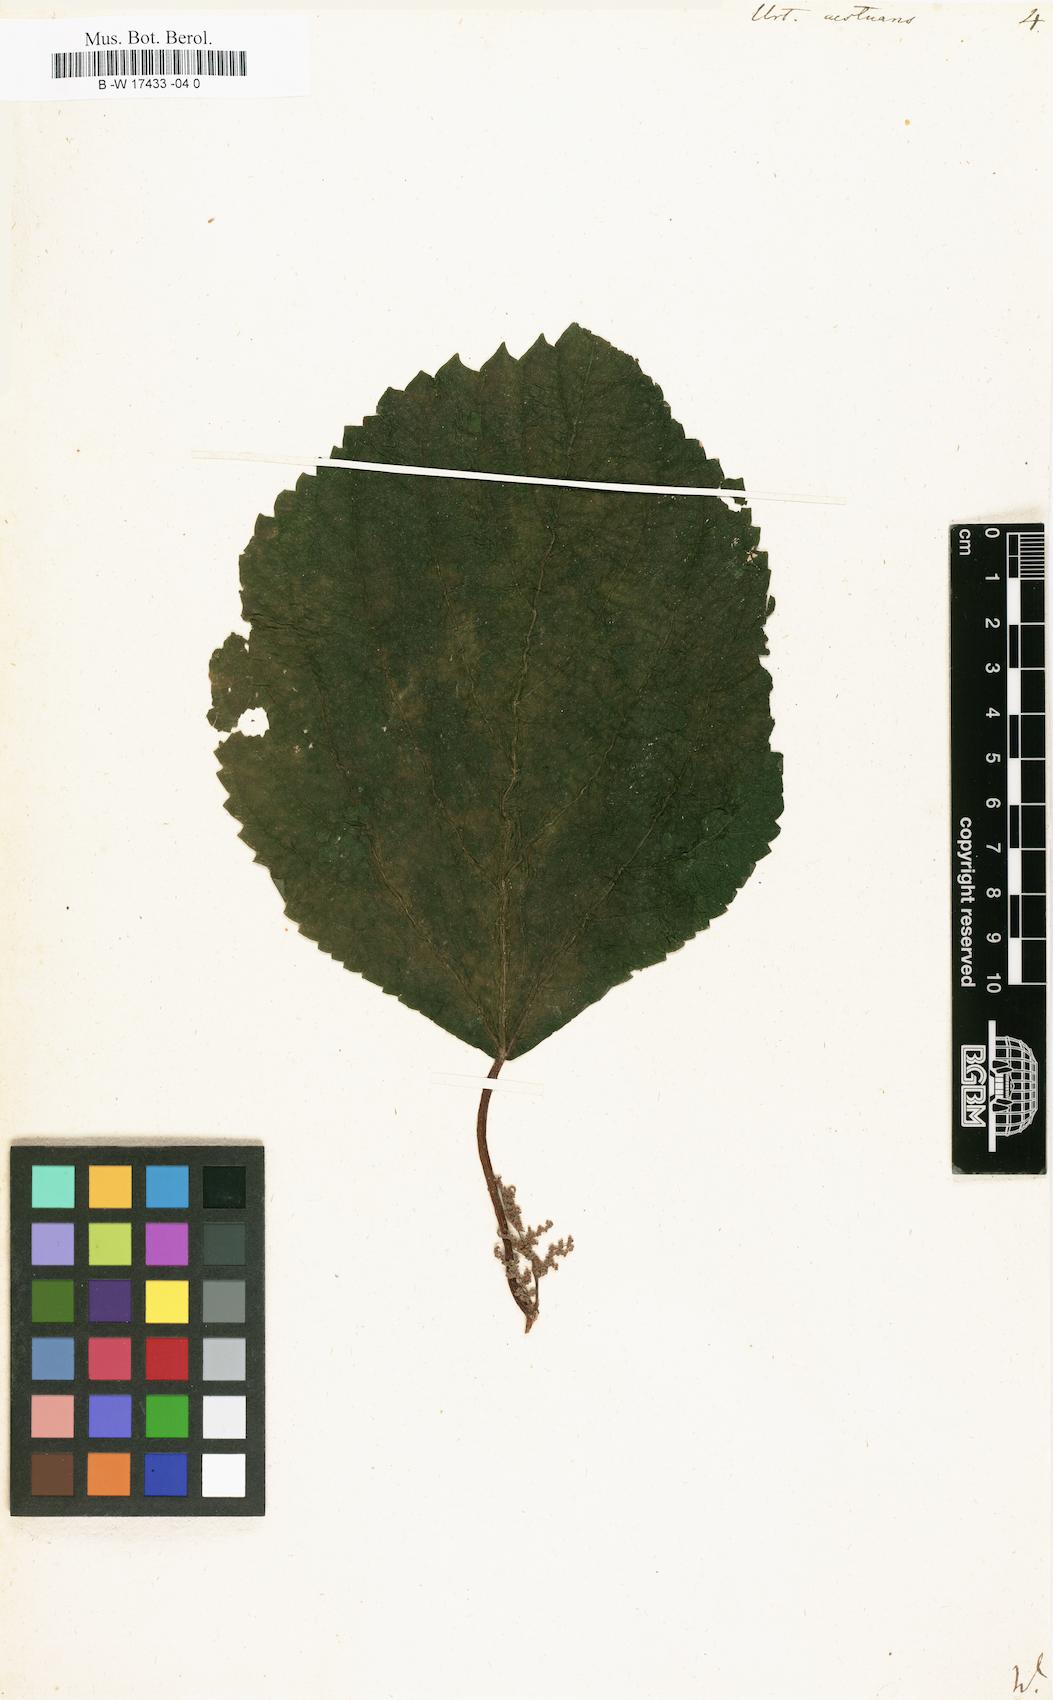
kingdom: Plantae
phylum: Tracheophyta
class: Magnoliopsida
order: Rosales
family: Urticaceae
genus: Laportea
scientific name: Laportea aestuans
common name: West indian woodnettle
